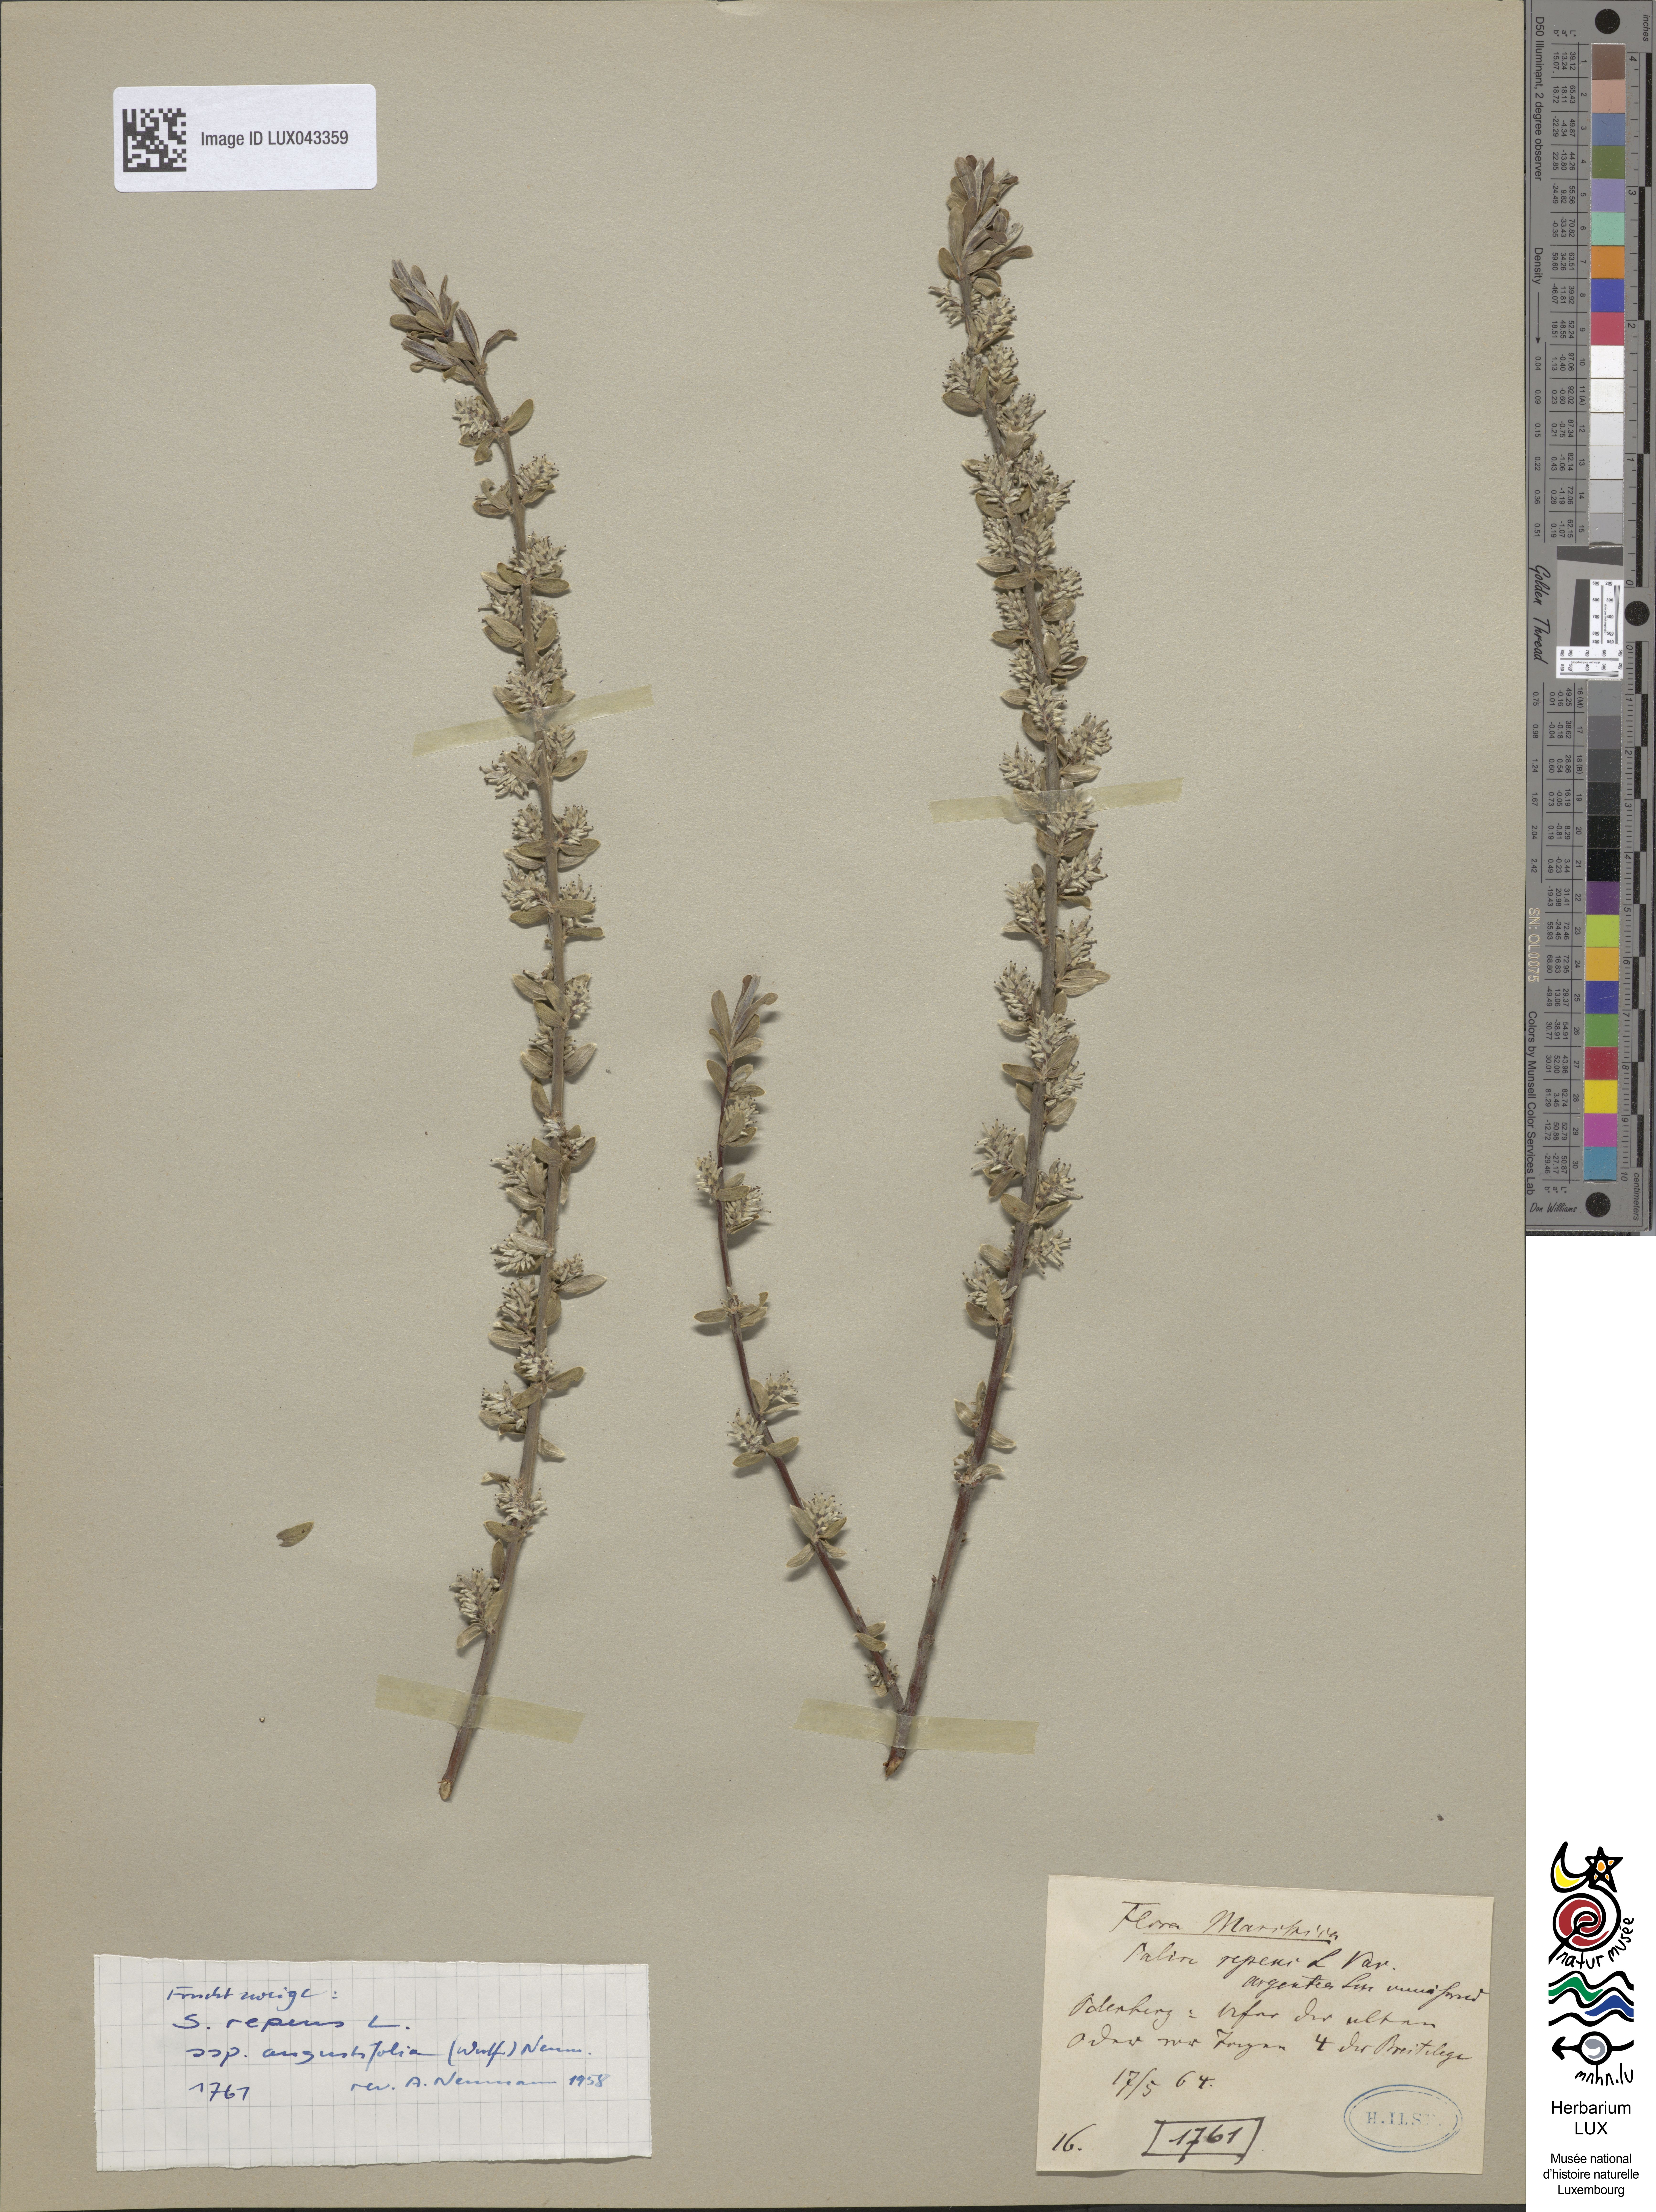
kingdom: Plantae
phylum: Tracheophyta
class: Magnoliopsida
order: Malpighiales
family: Salicaceae
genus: Salix
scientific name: Salix rosmarinifolia
